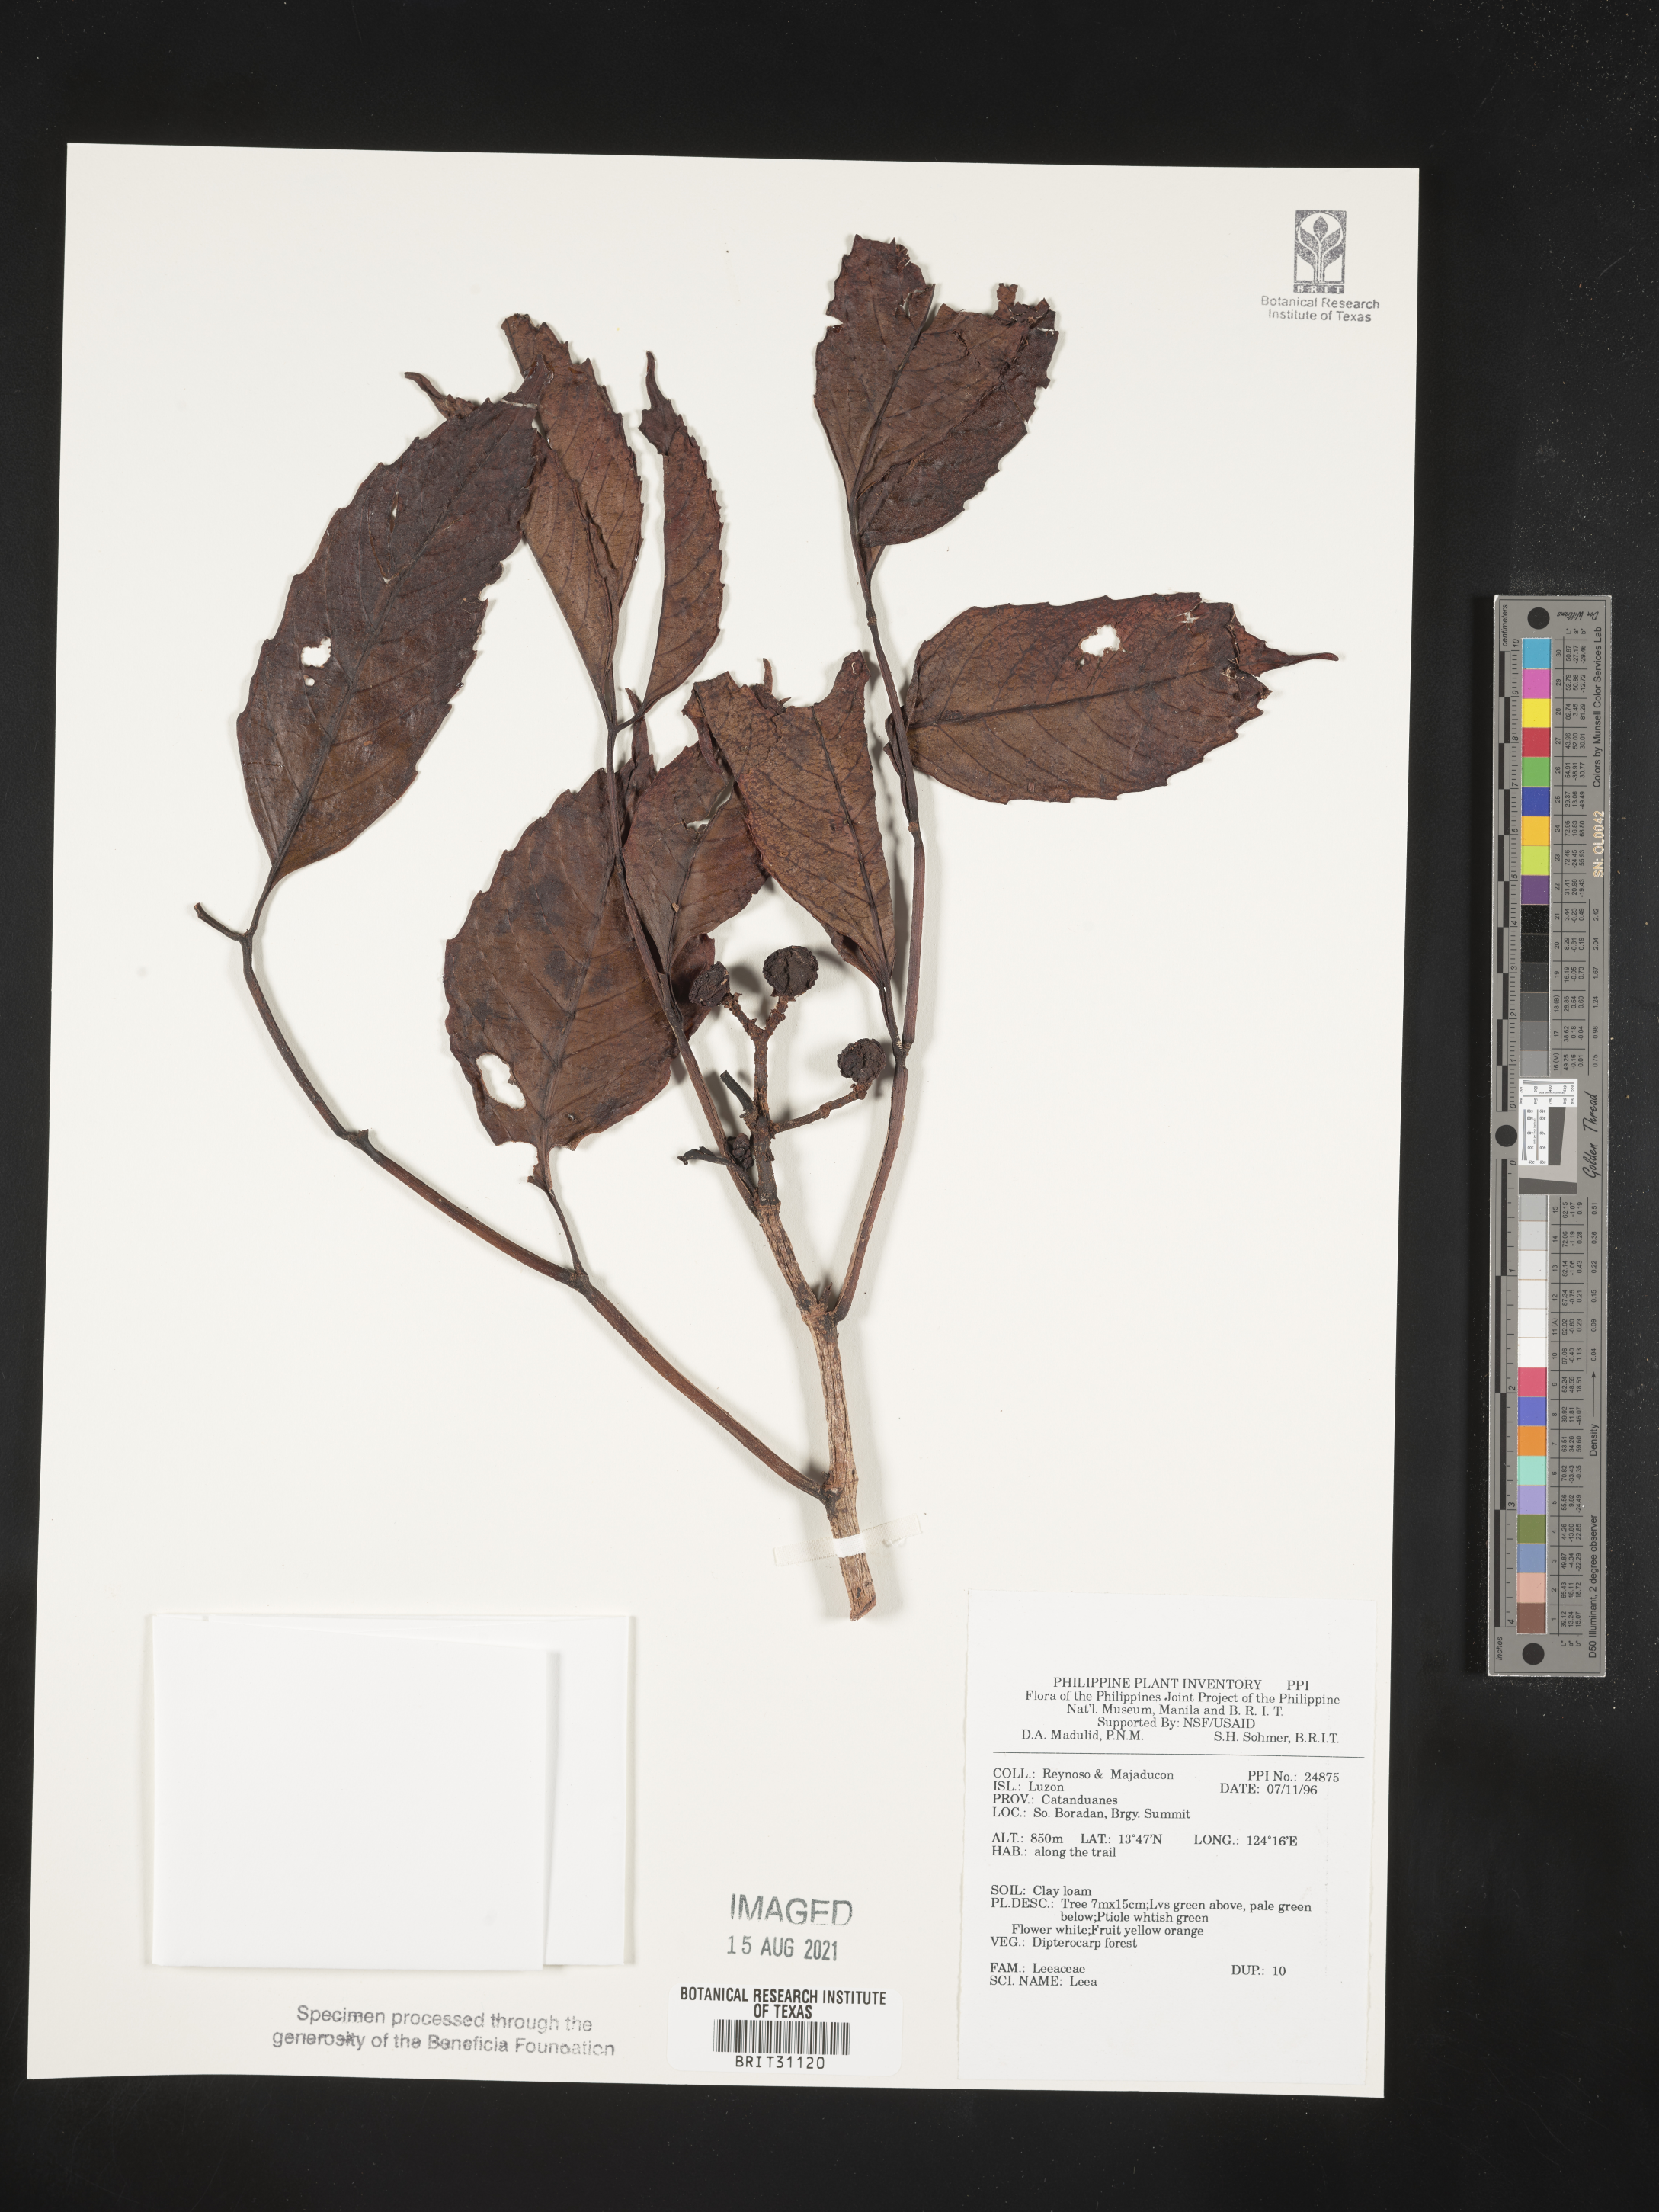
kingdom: Plantae
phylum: Tracheophyta
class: Magnoliopsida
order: Vitales
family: Vitaceae
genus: Leea
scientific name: Leea
